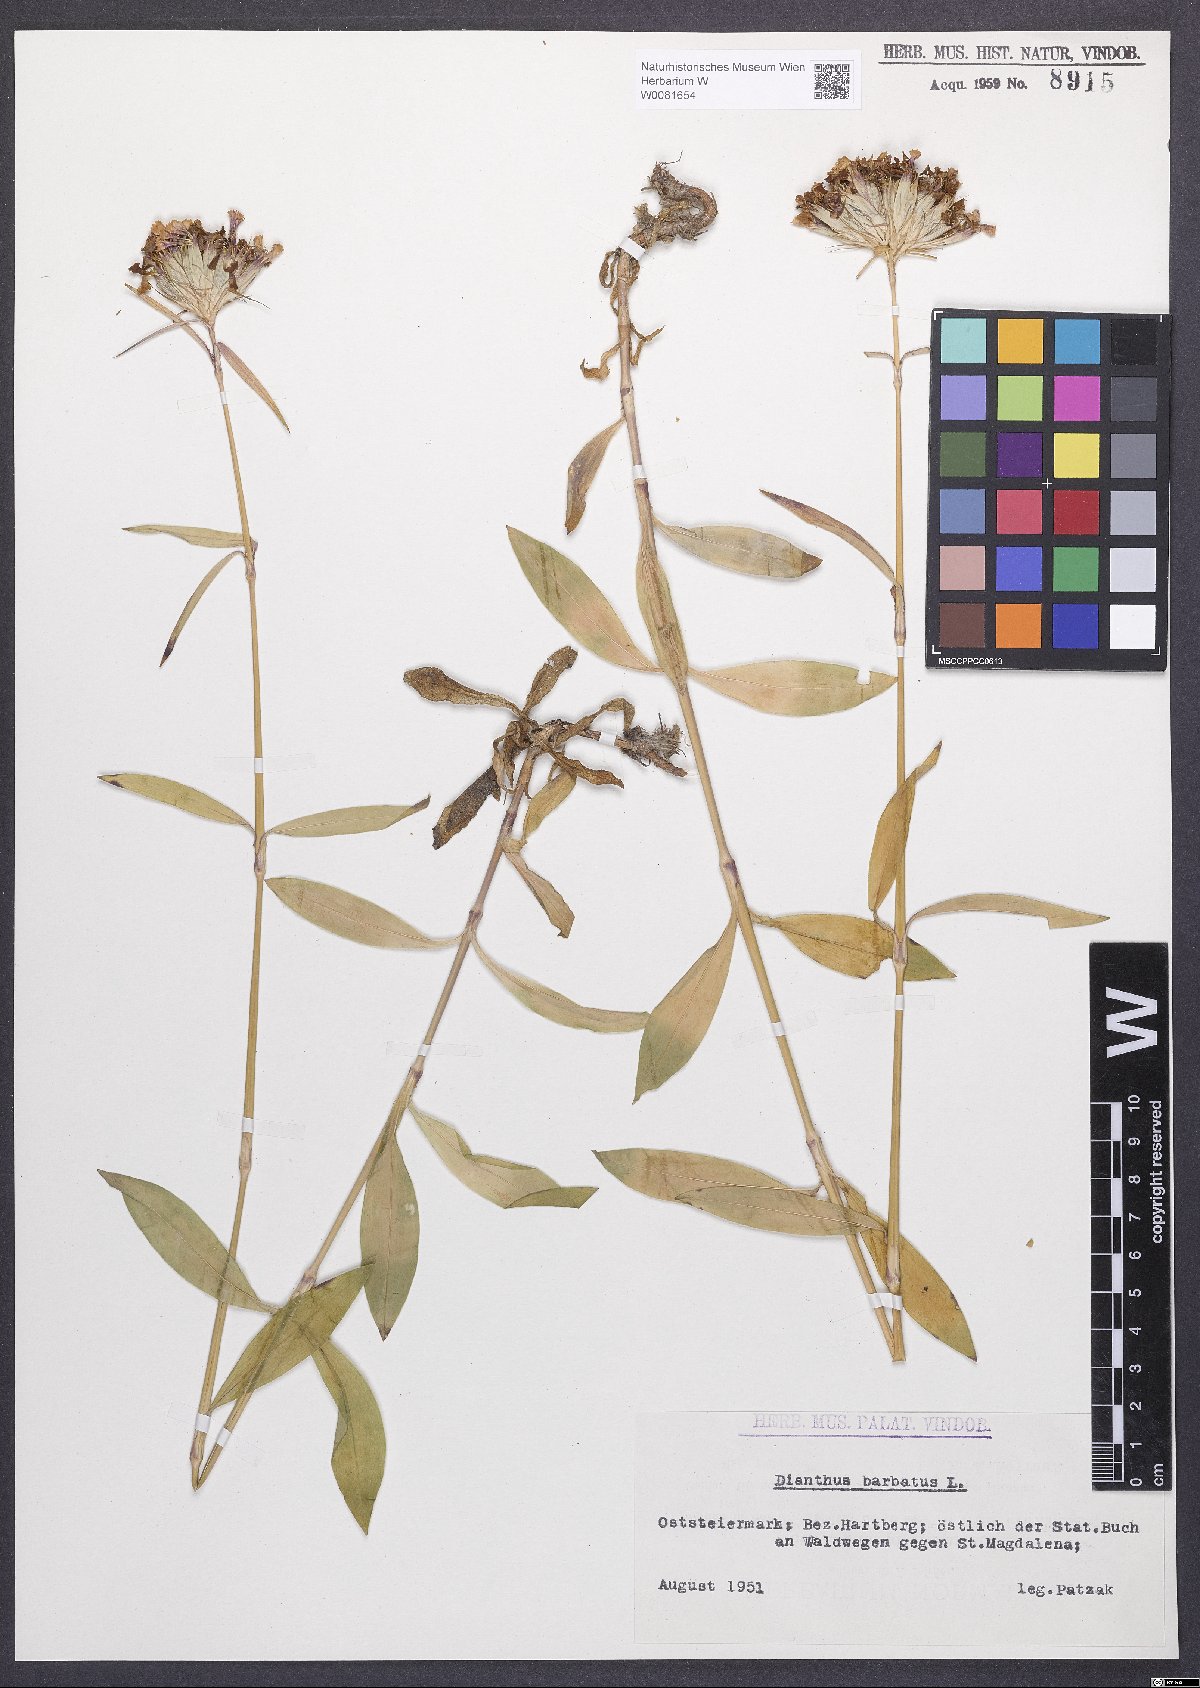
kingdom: Plantae
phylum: Tracheophyta
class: Magnoliopsida
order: Caryophyllales
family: Caryophyllaceae
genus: Dianthus
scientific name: Dianthus barbatus
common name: Sweet-william
